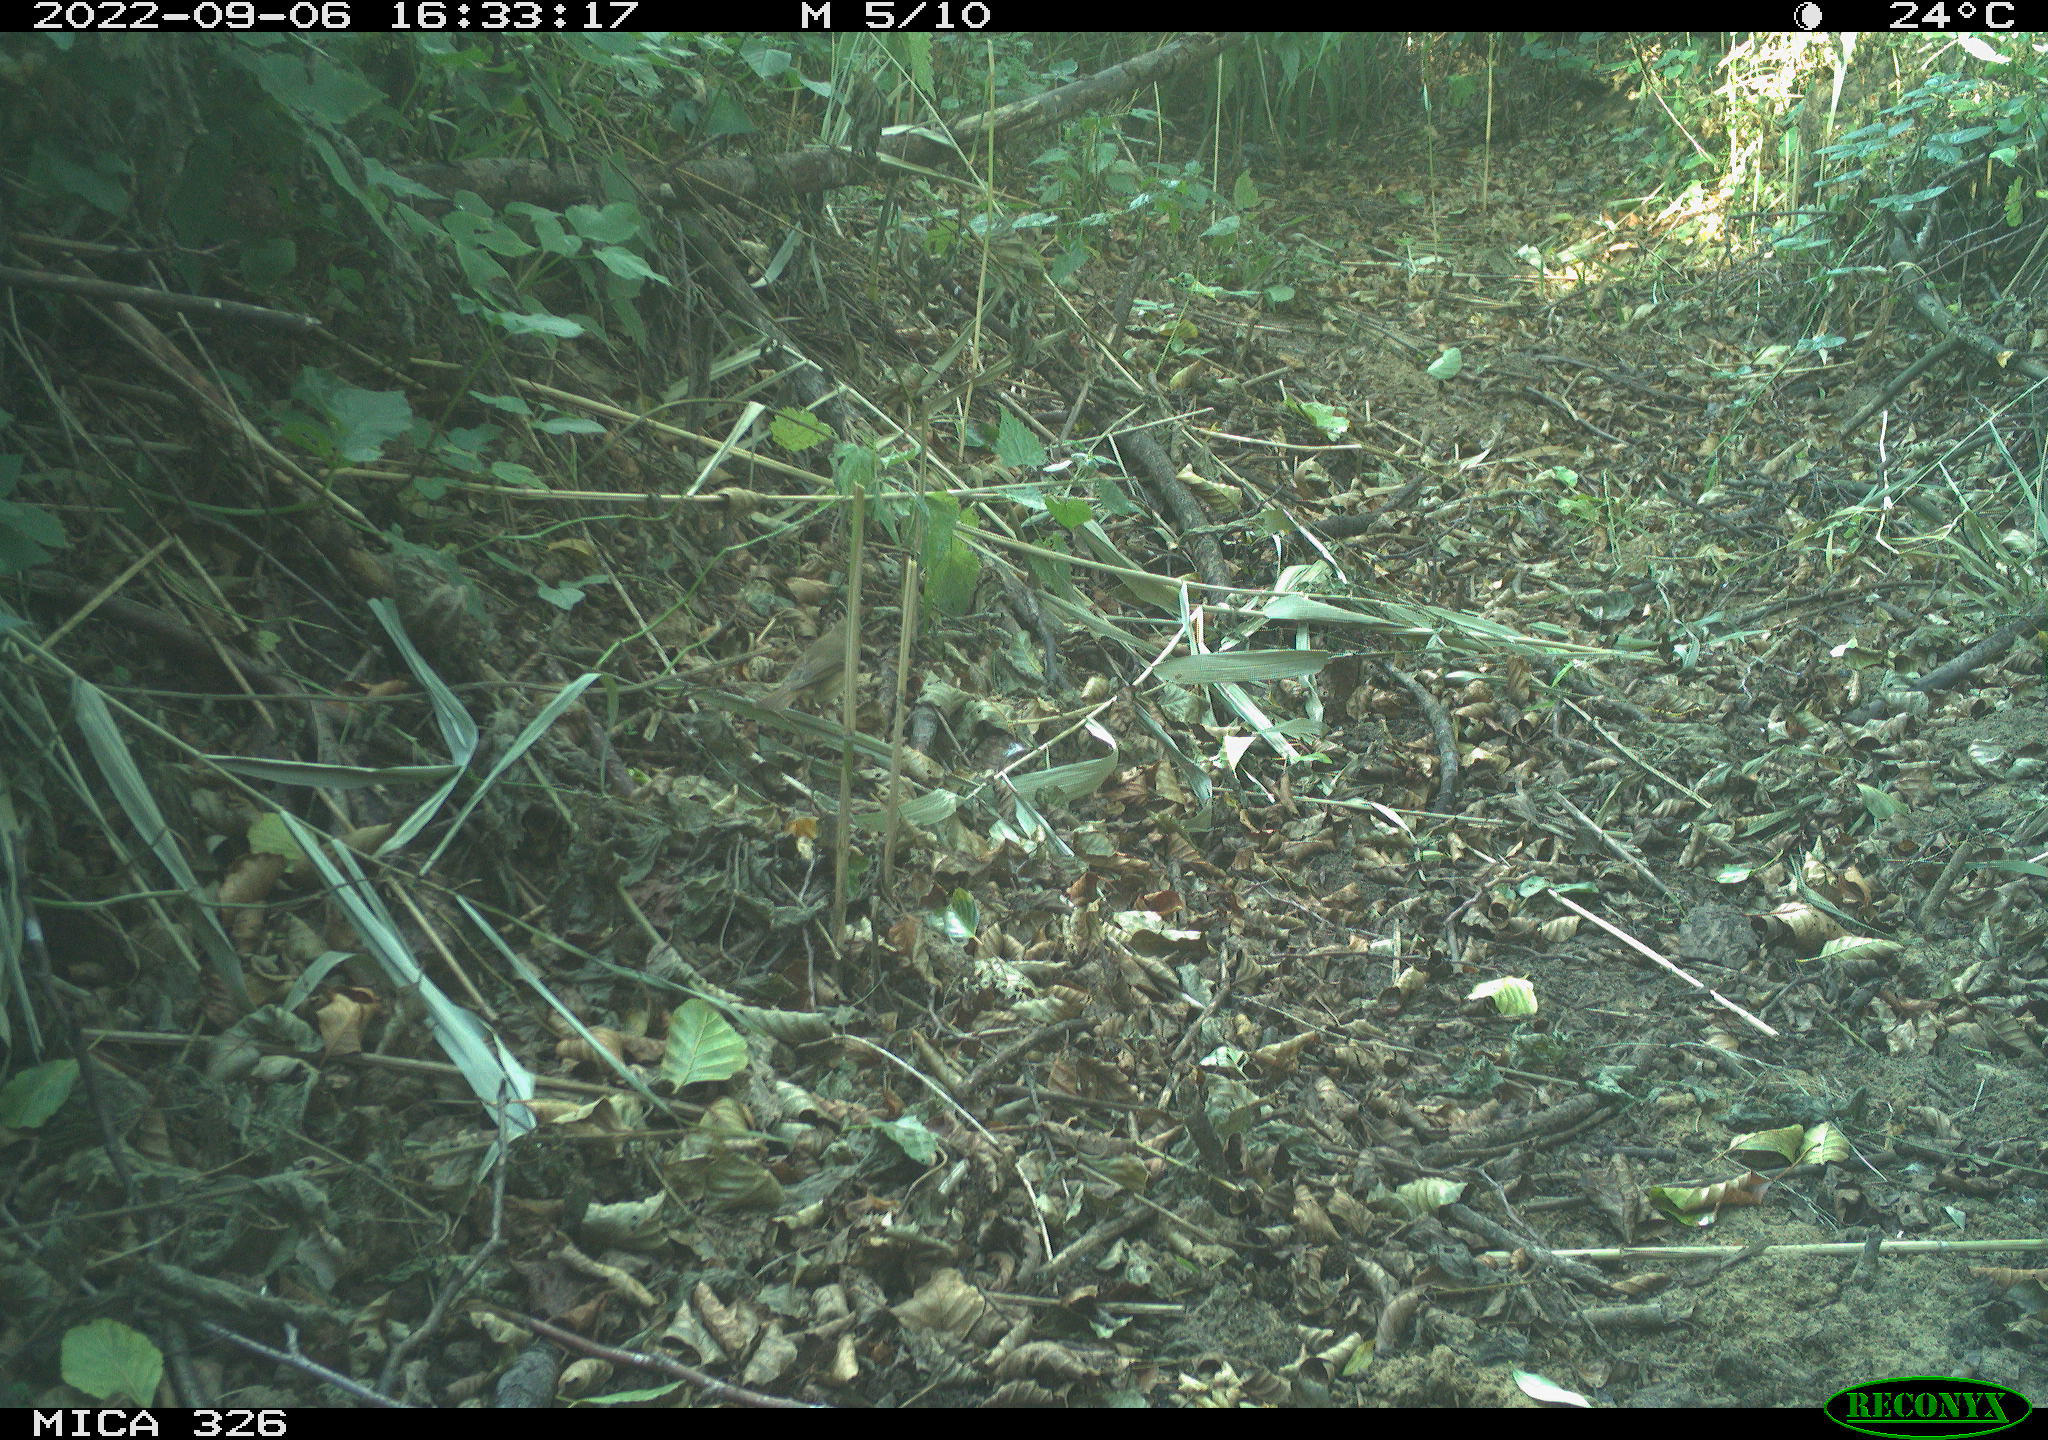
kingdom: Animalia
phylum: Chordata
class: Aves
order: Passeriformes
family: Muscicapidae
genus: Erithacus
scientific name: Erithacus rubecula
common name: European robin
